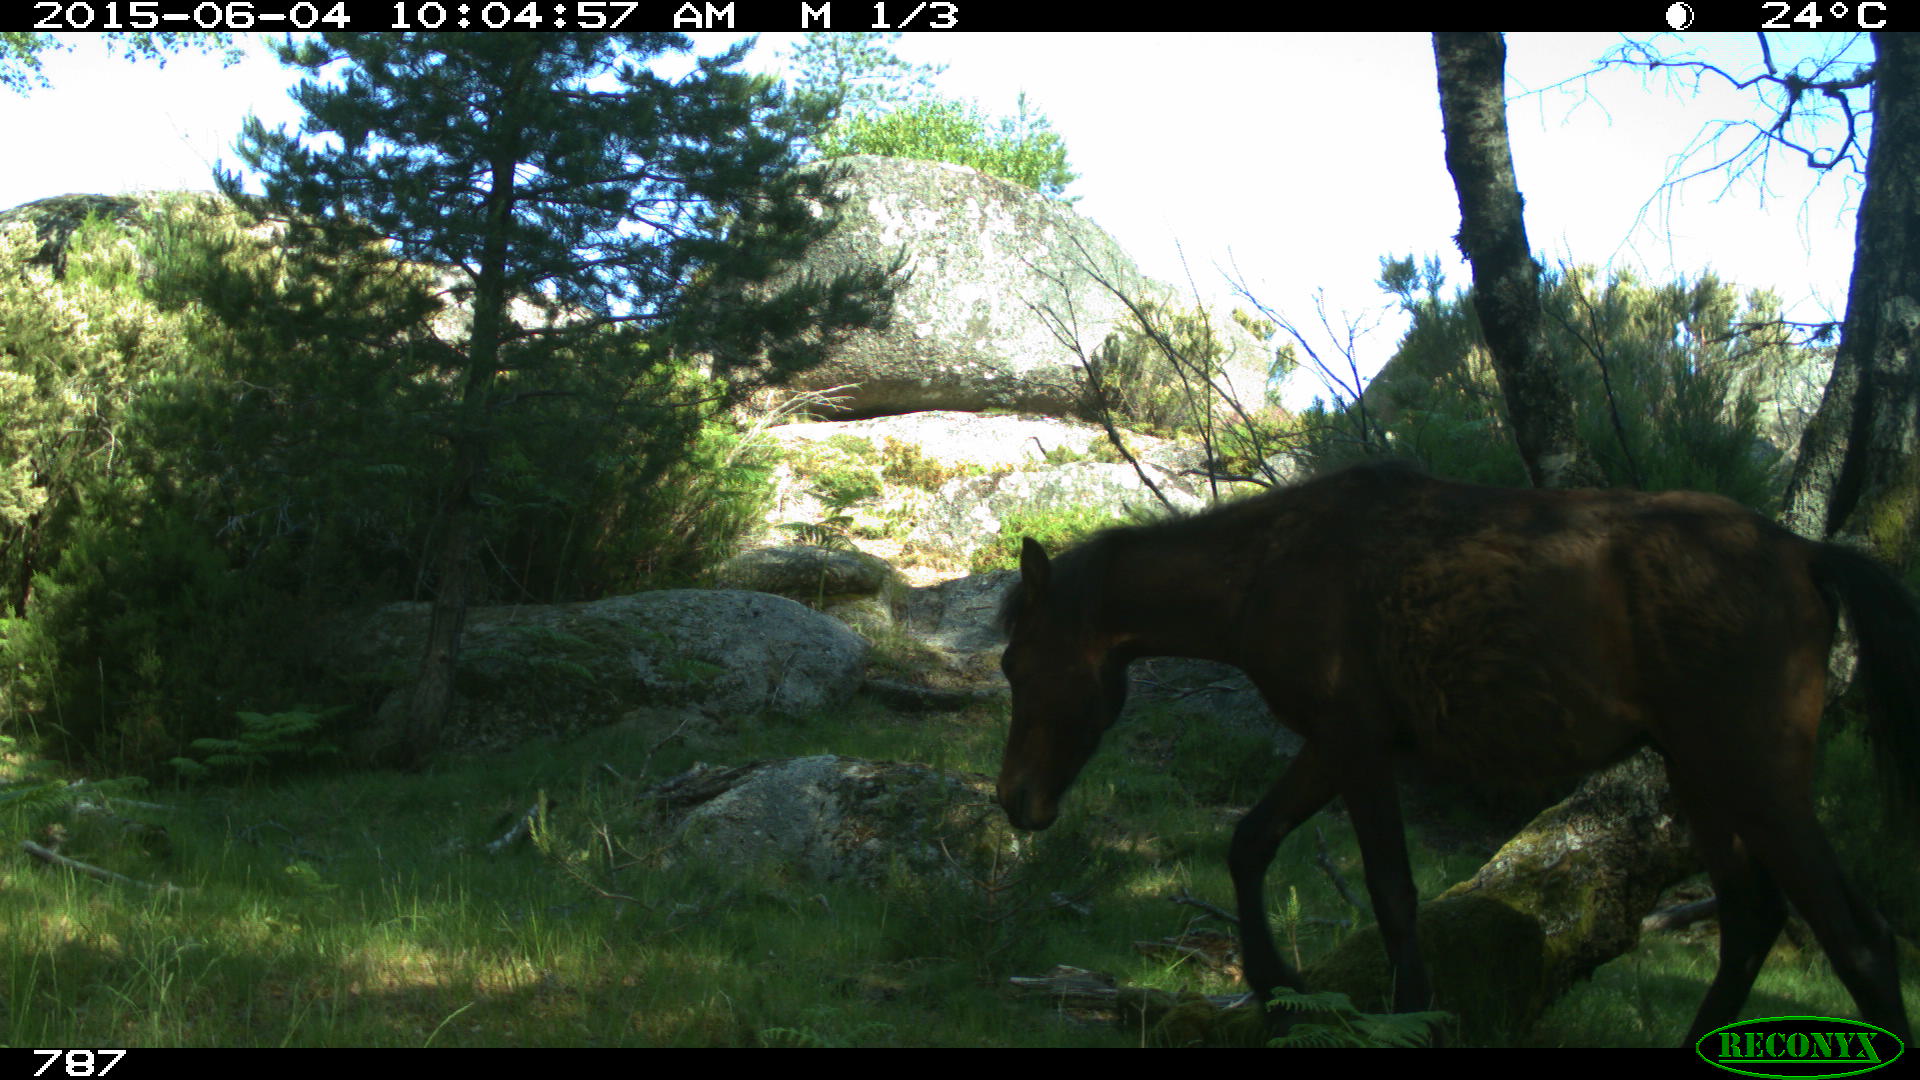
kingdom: Animalia
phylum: Chordata
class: Mammalia
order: Perissodactyla
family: Equidae
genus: Equus
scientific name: Equus caballus
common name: Horse
